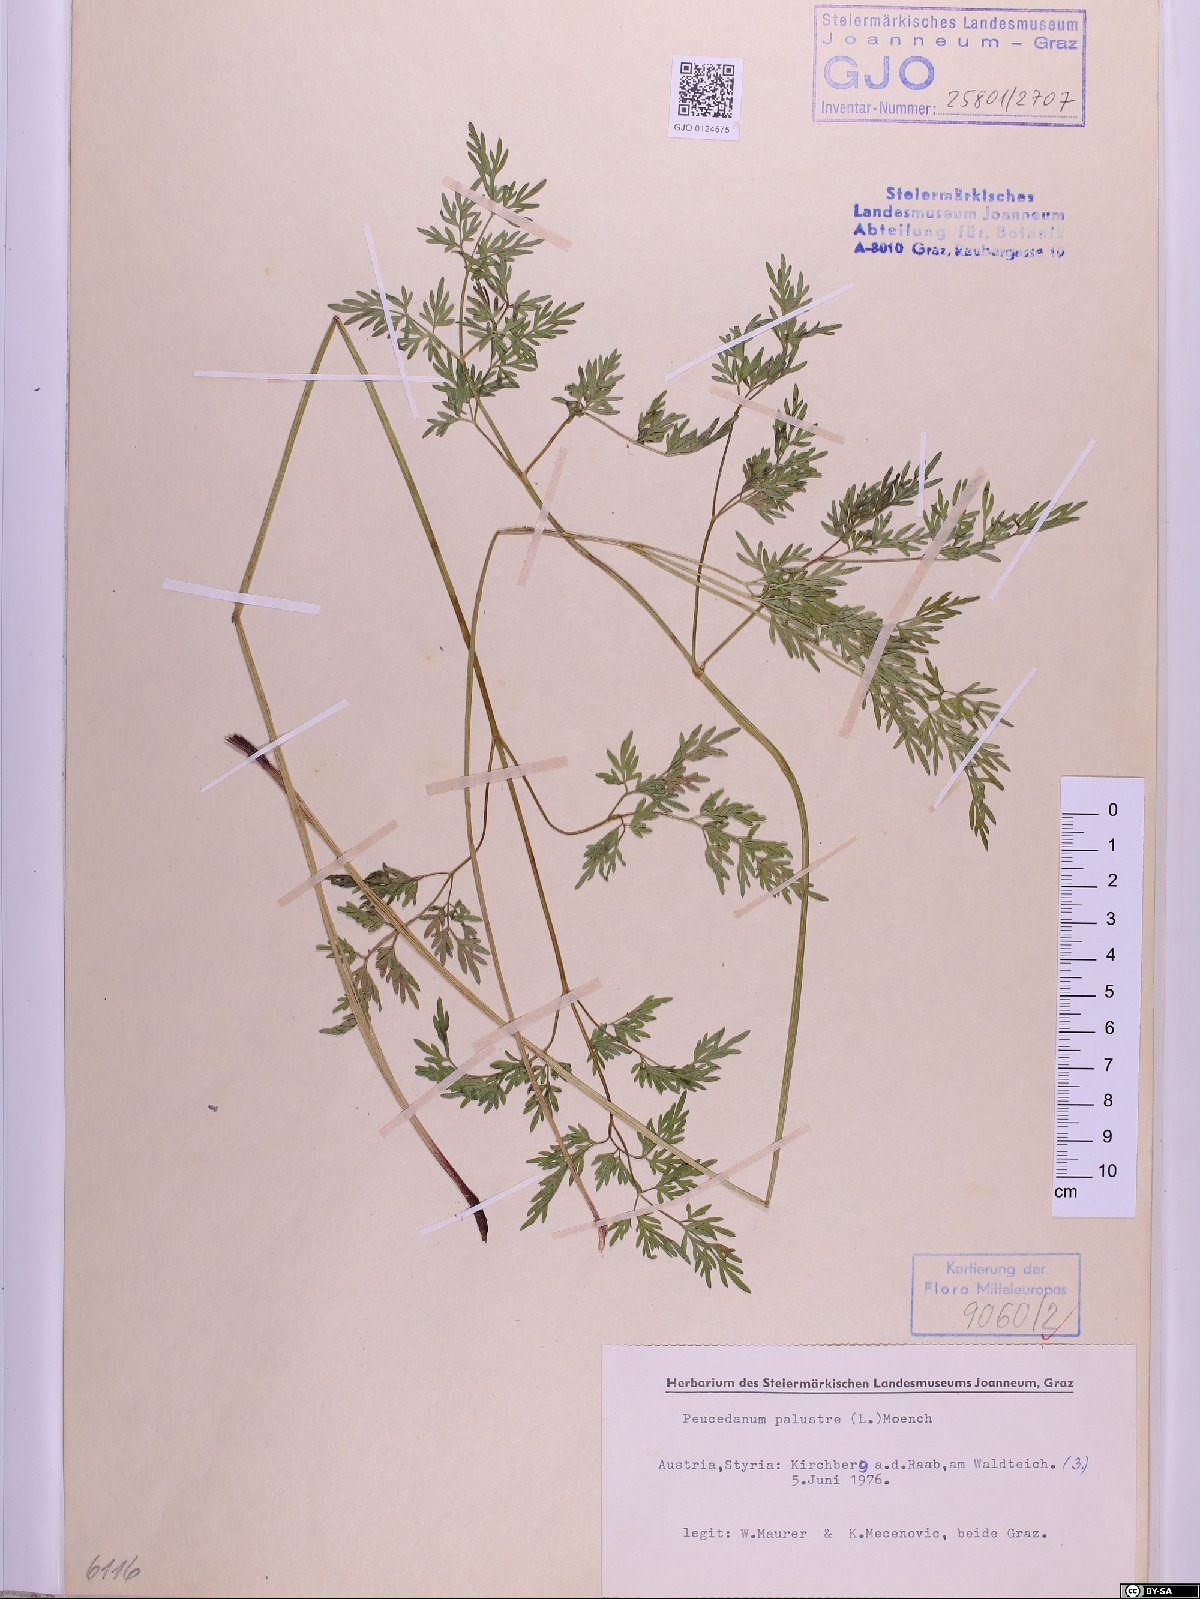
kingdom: Plantae
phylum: Tracheophyta
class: Magnoliopsida
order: Apiales
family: Apiaceae
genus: Thysselinum
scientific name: Thysselinum palustre
